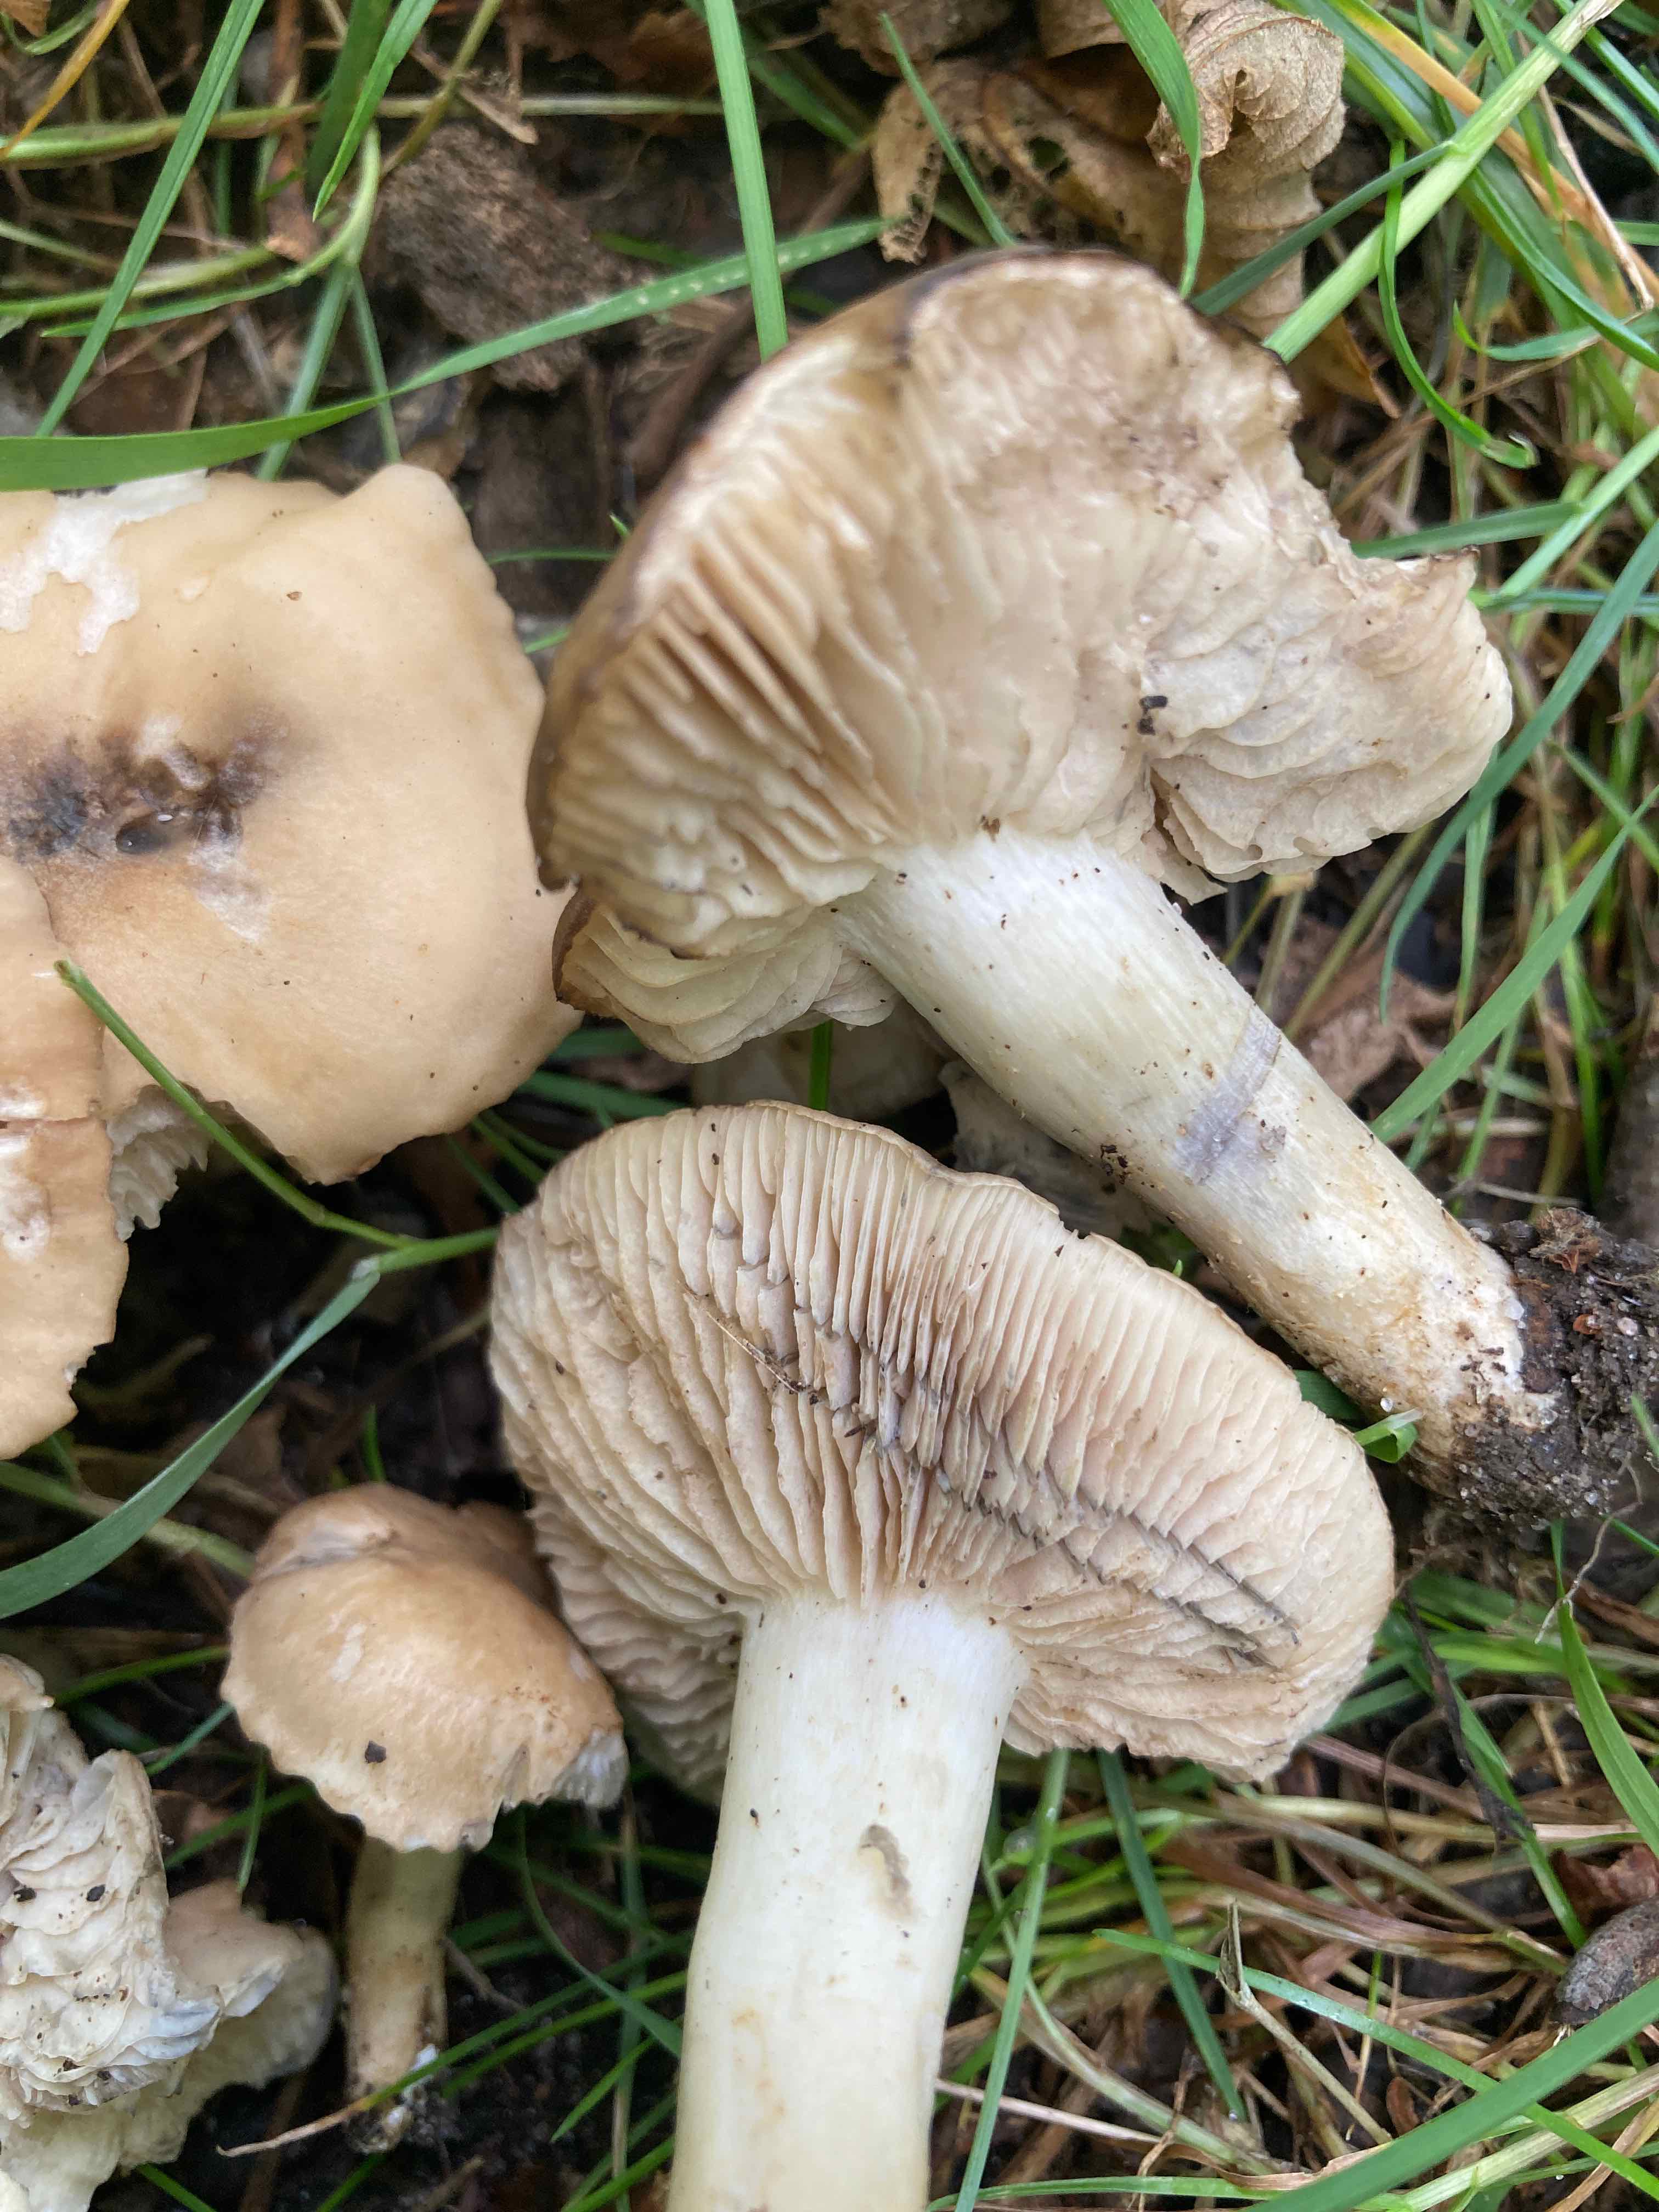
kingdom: Fungi
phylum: Basidiomycota
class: Agaricomycetes
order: Agaricales
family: Lyophyllaceae
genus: Lyophyllum
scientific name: Lyophyllum paelochroum
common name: blånende gråblad
